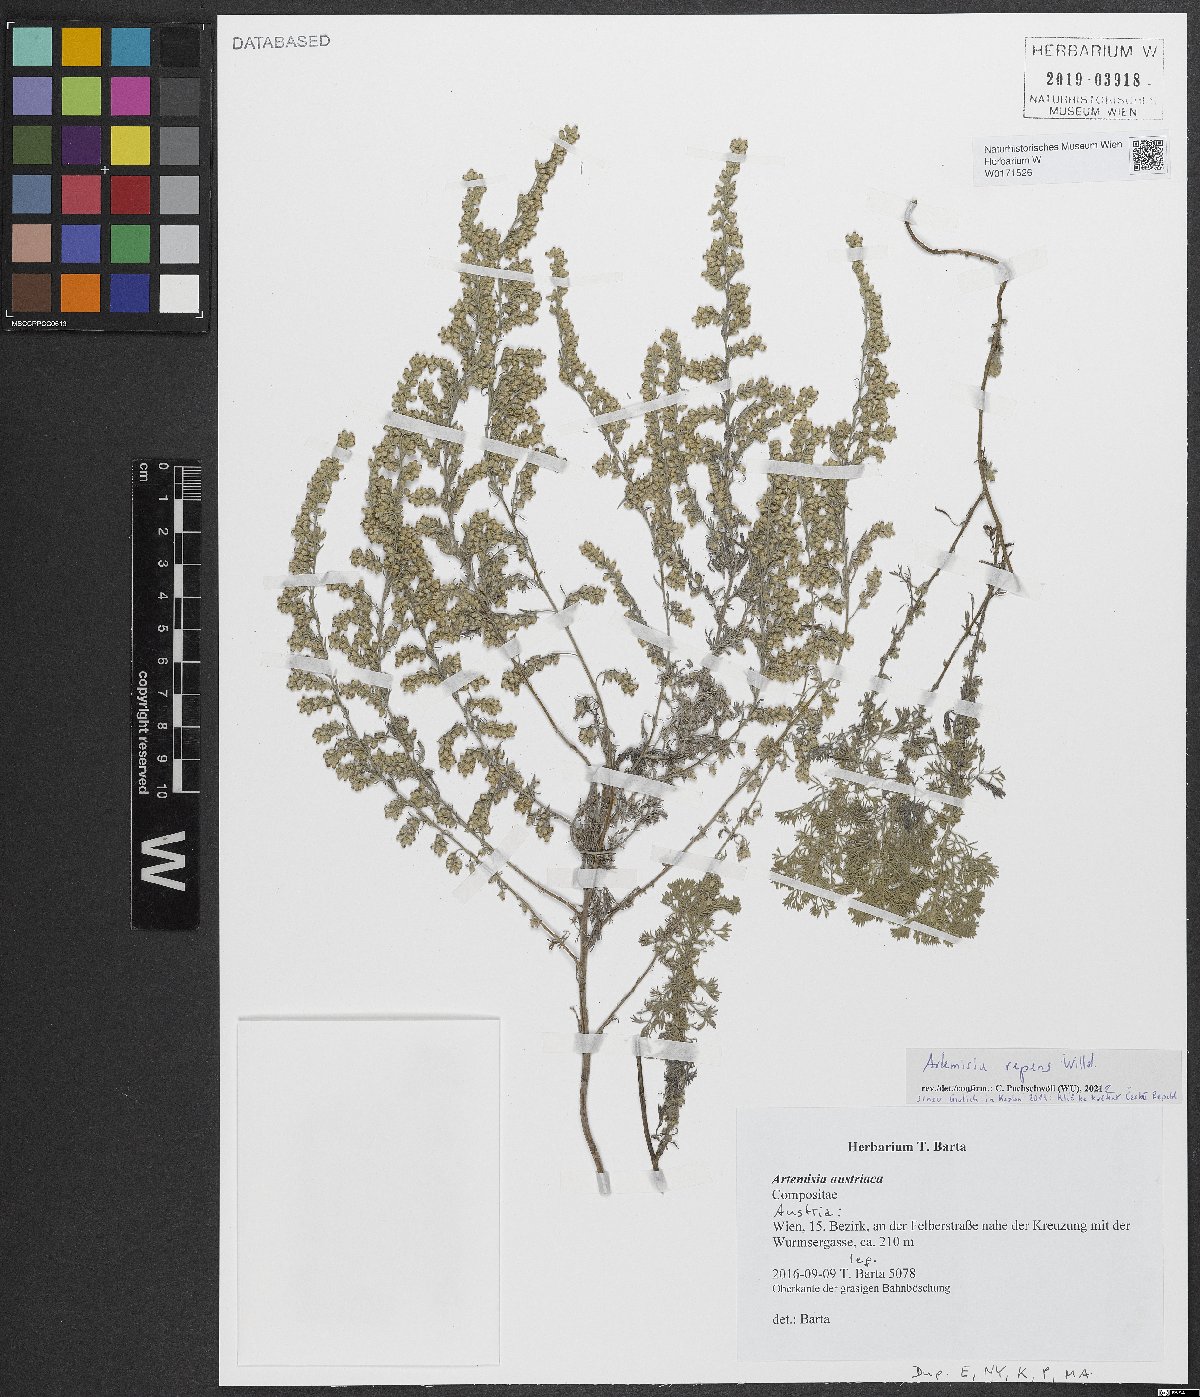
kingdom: Plantae
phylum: Tracheophyta
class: Magnoliopsida
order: Asterales
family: Asteraceae
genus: Artemisia
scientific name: Artemisia repens
